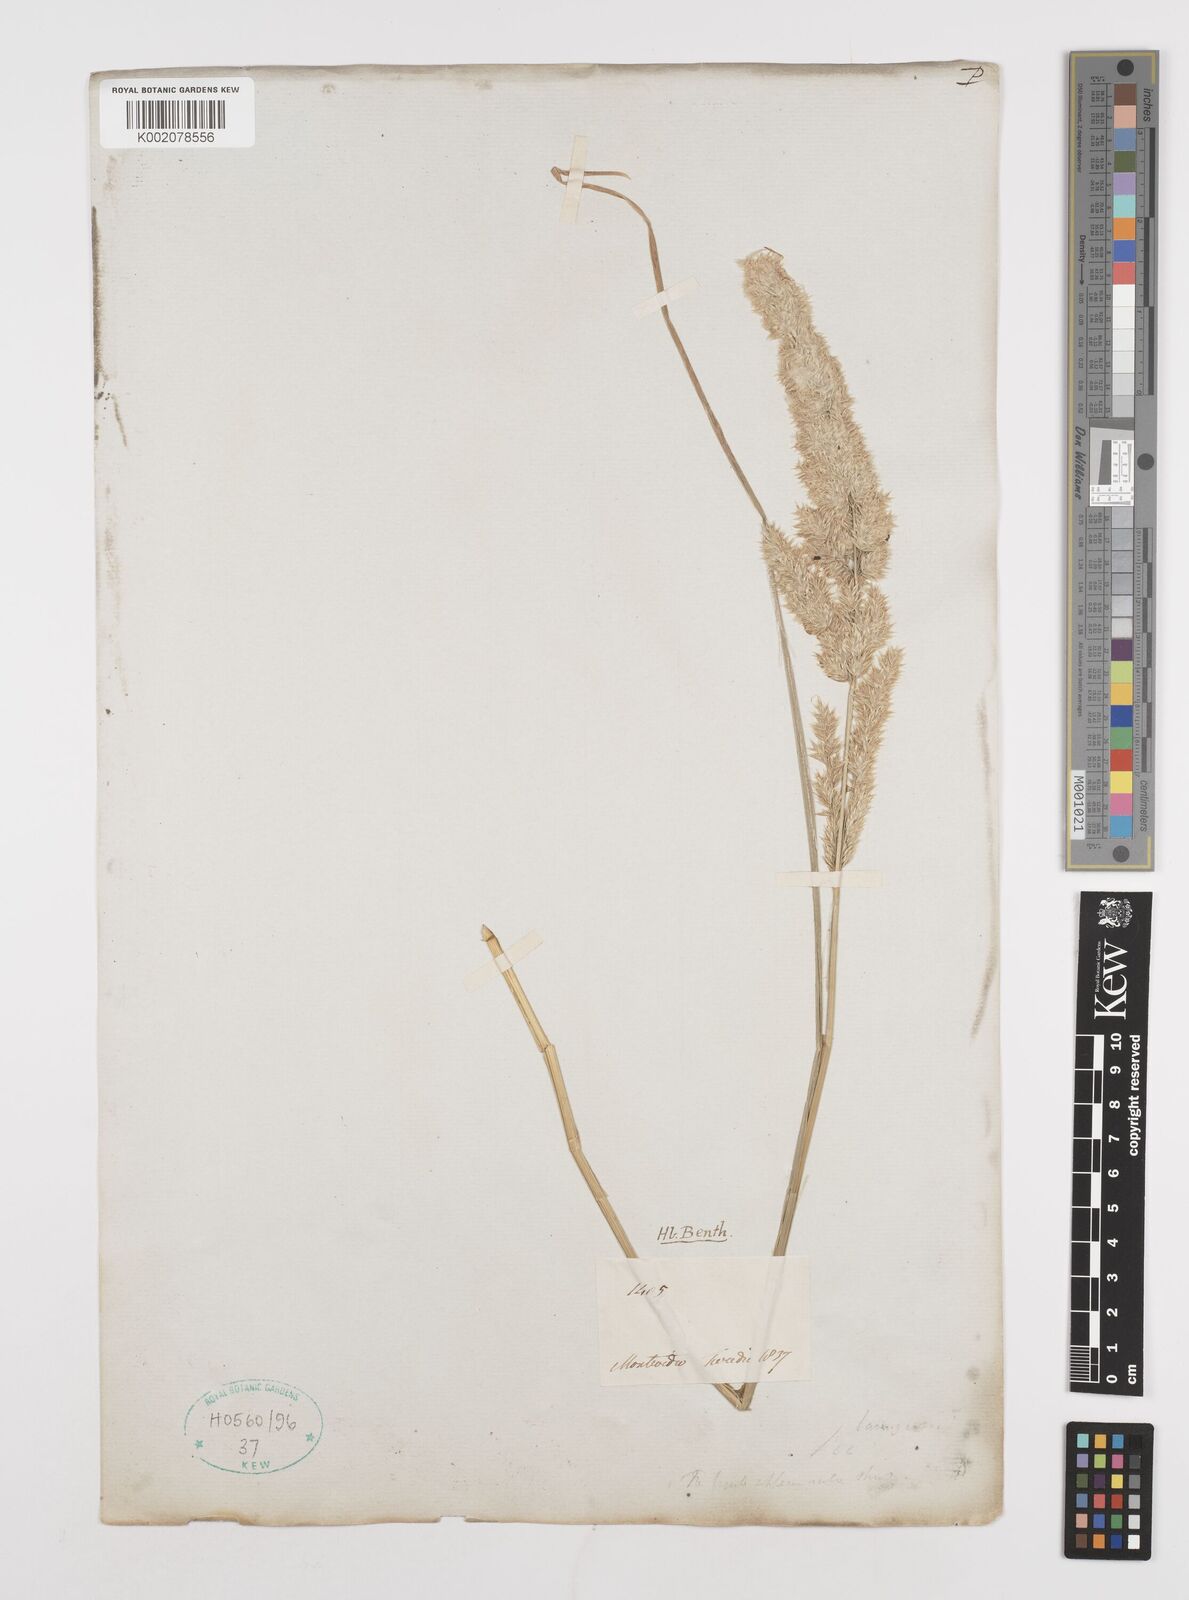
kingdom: Plantae
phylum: Tracheophyta
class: Liliopsida
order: Poales
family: Poaceae
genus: Poa
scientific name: Poa lanuginosa
